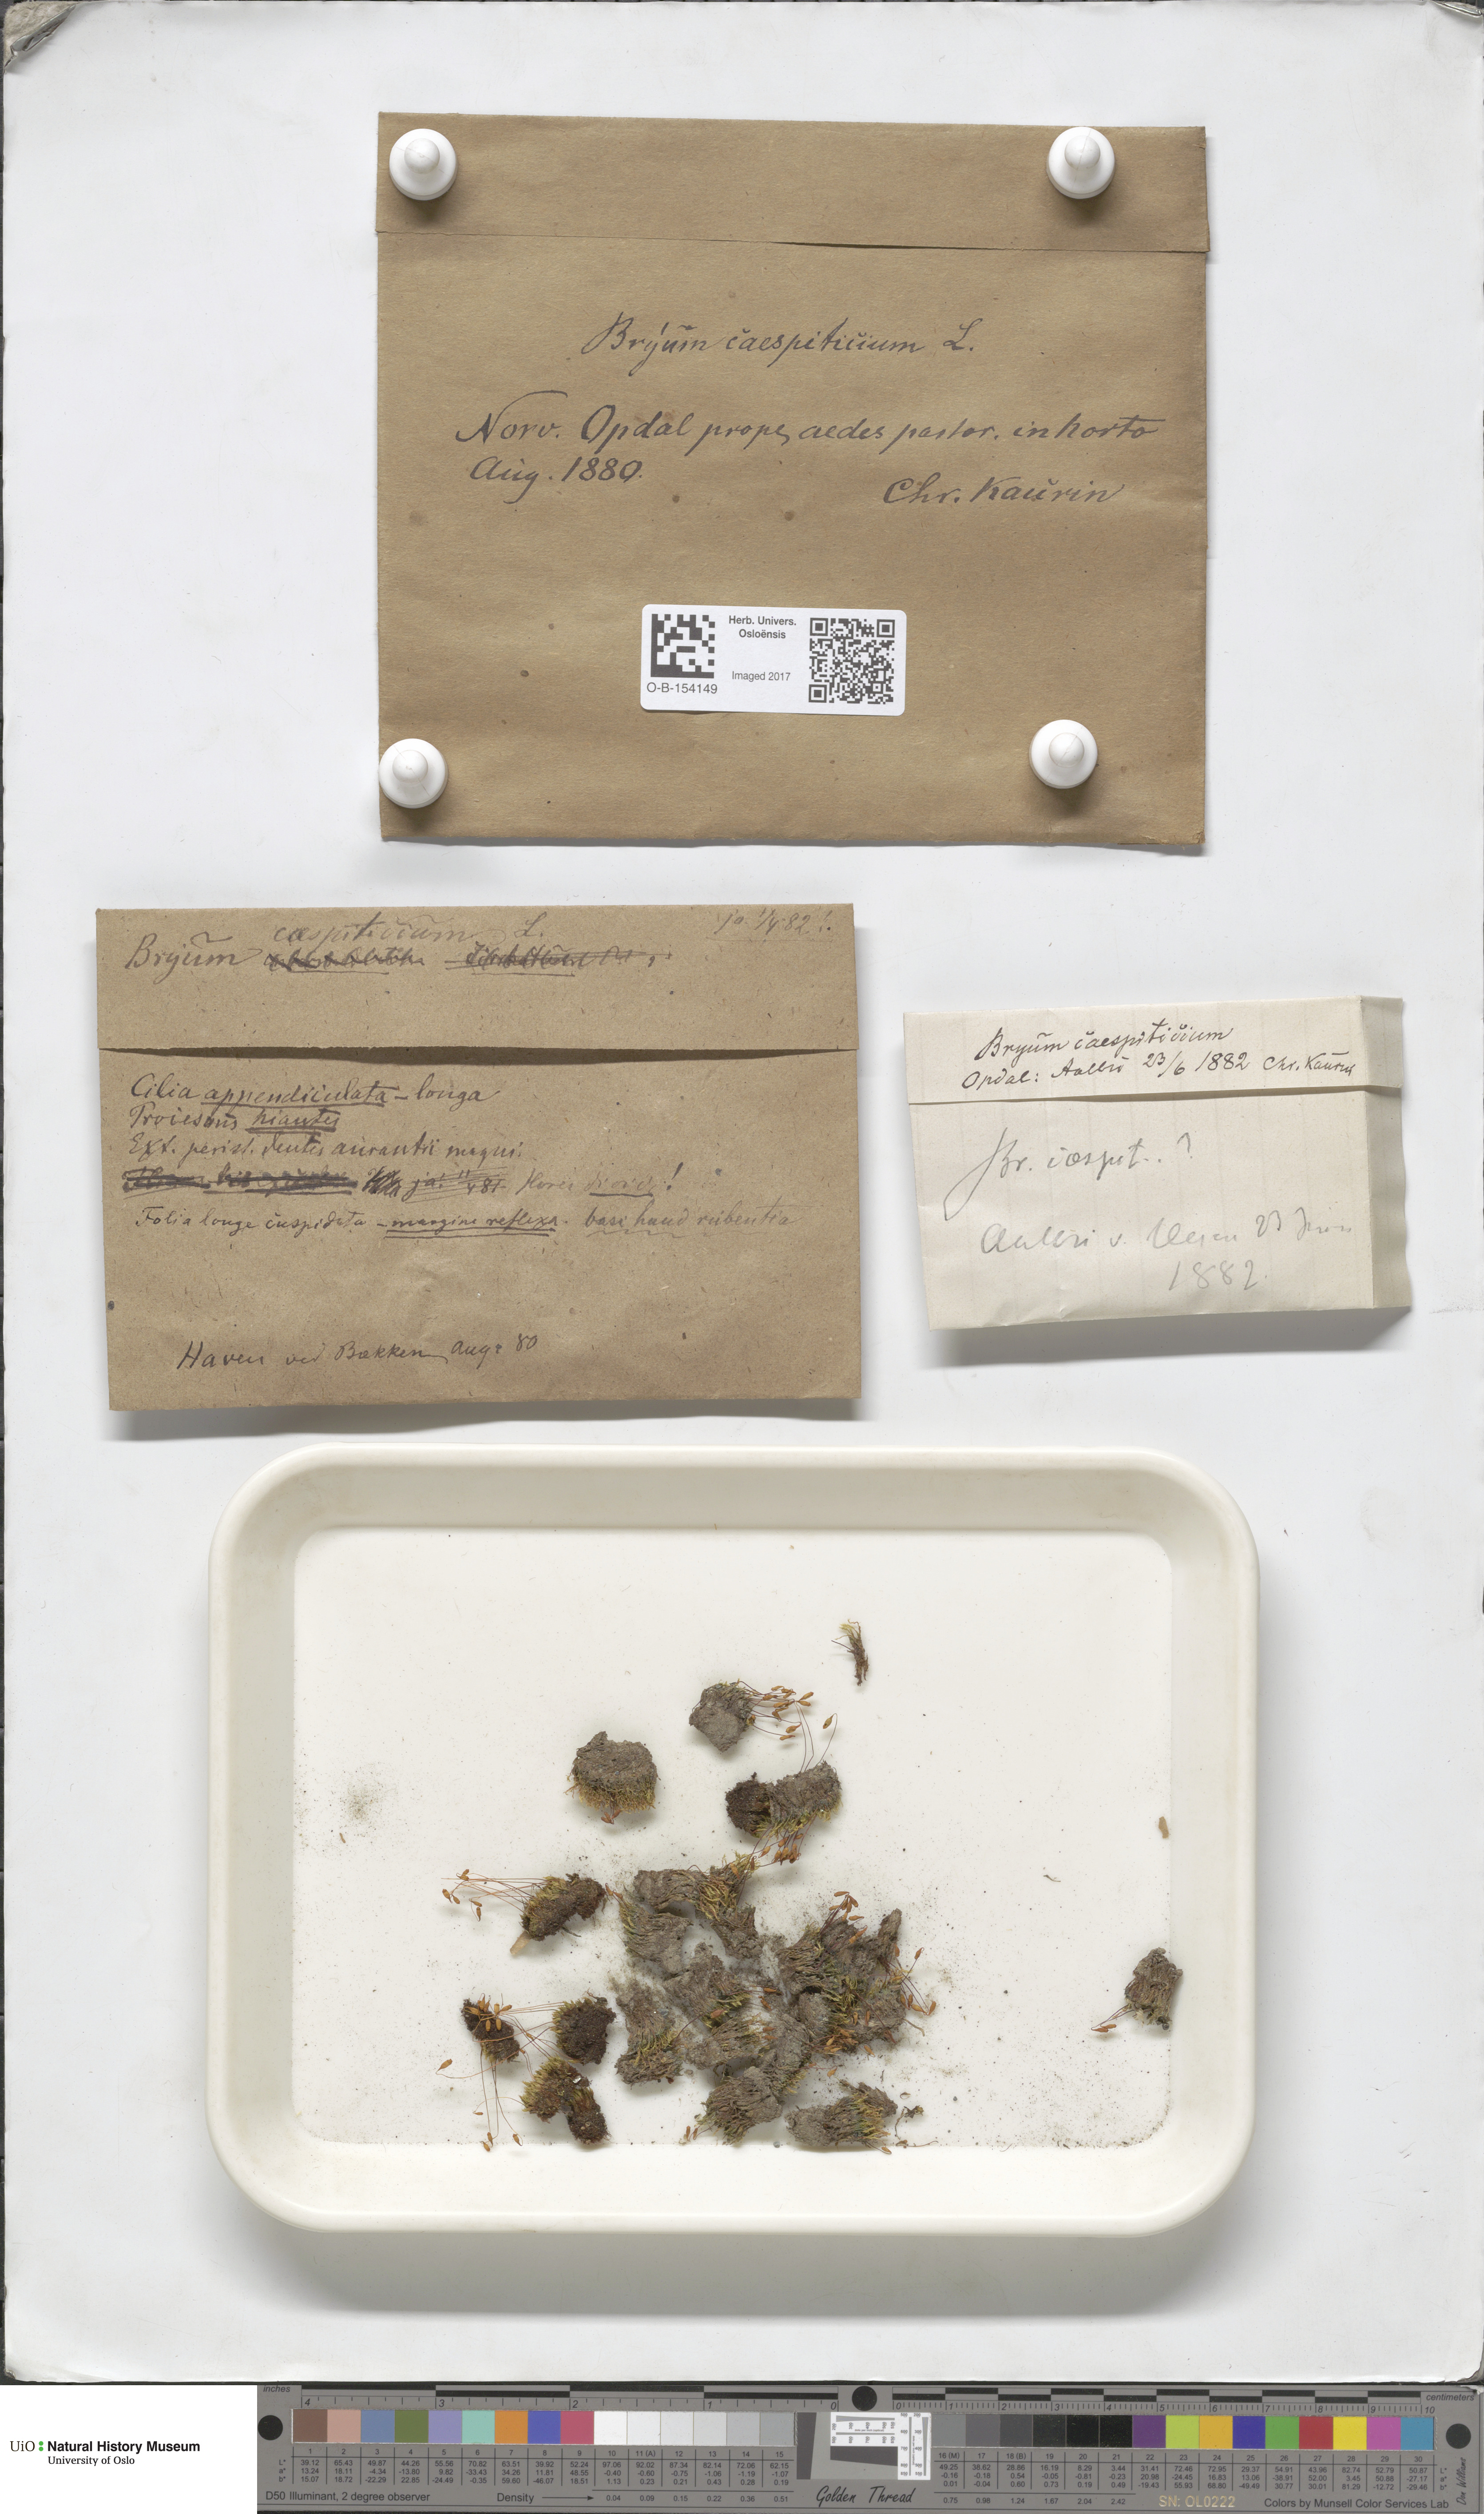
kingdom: Plantae
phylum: Bryophyta
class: Bryopsida
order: Bryales
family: Bryaceae
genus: Gemmabryum
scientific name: Gemmabryum caespiticium
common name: Handbell moss
